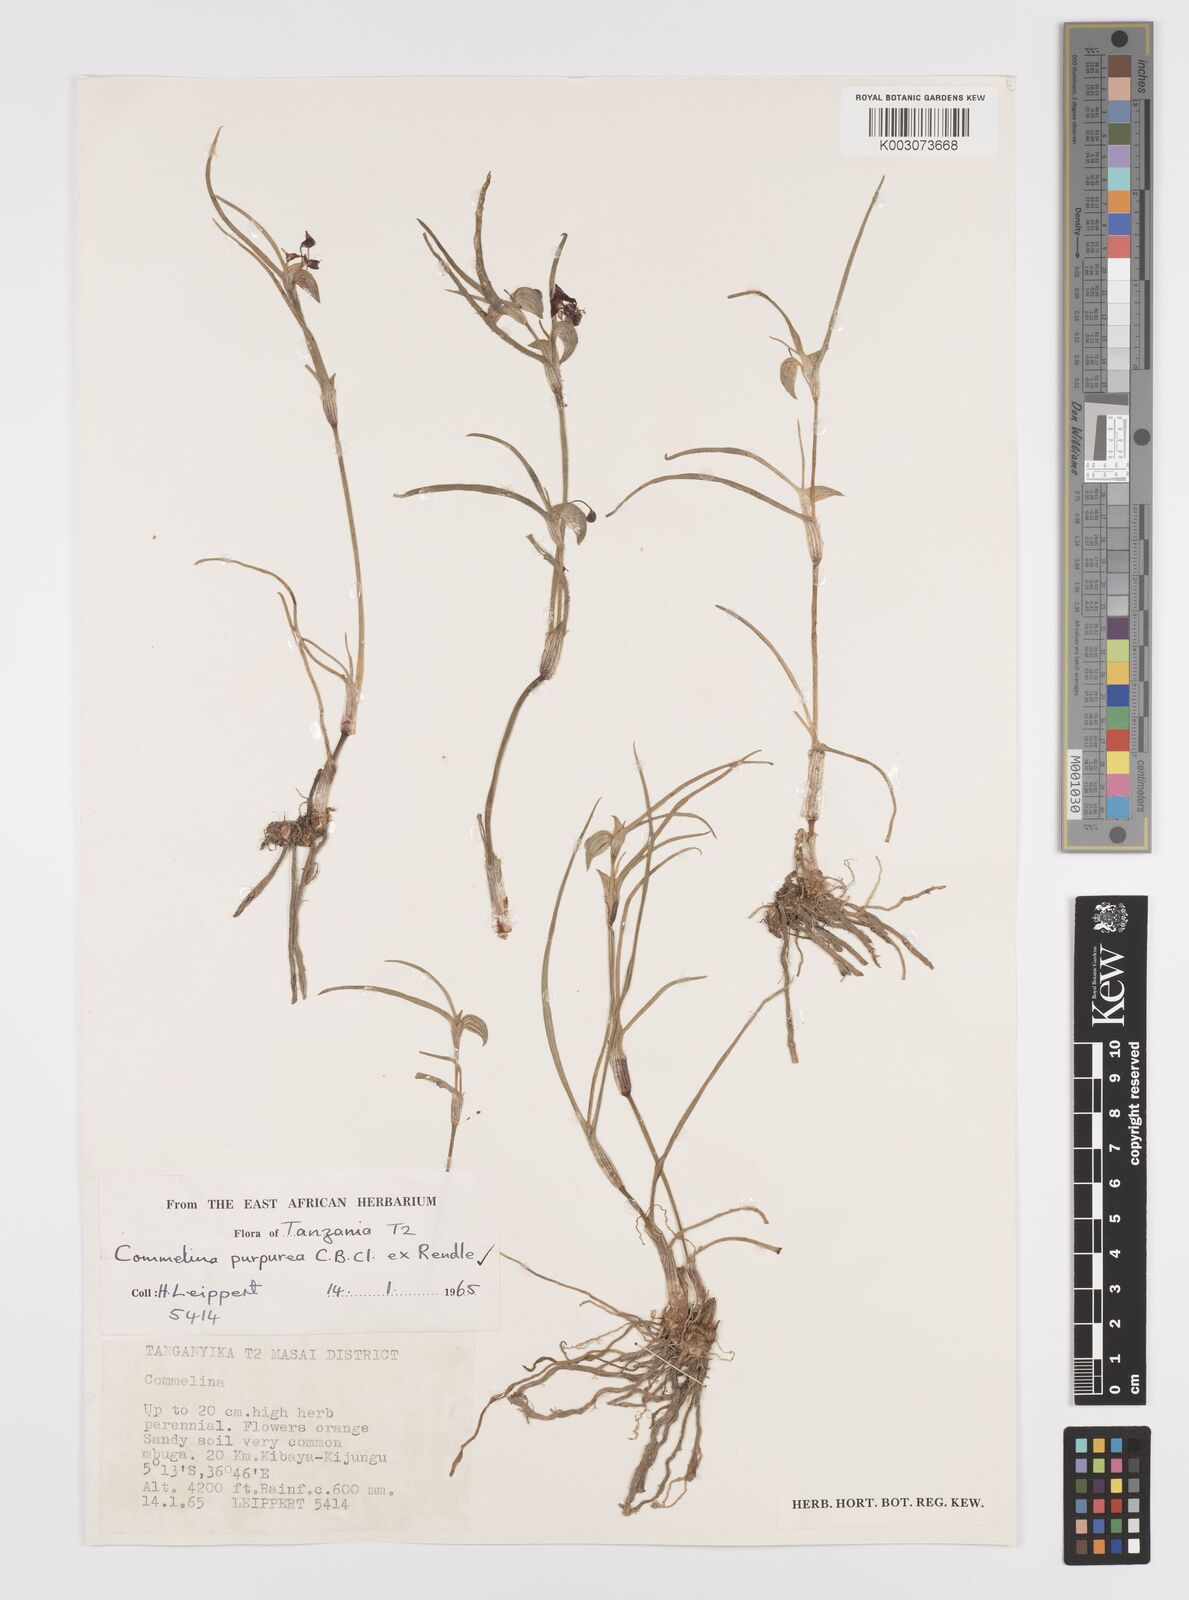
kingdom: Plantae
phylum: Tracheophyta
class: Liliopsida
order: Commelinales
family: Commelinaceae
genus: Commelina
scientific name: Commelina purpurea
